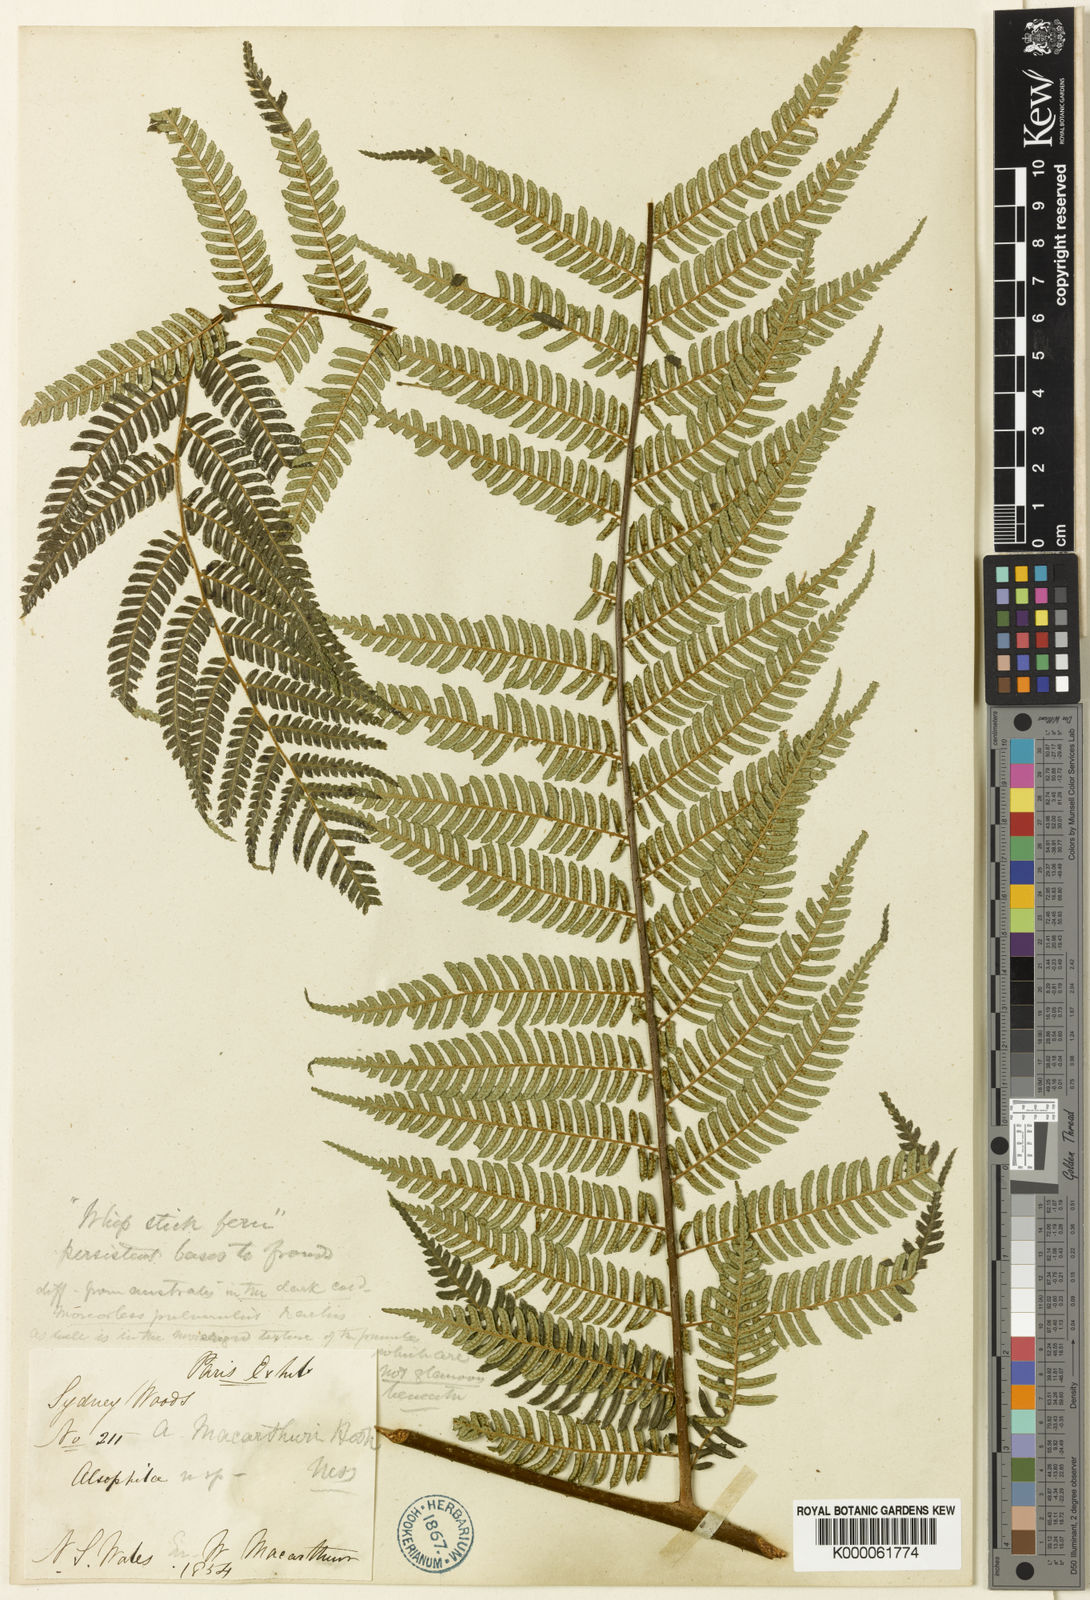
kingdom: Plantae
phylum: Tracheophyta
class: Polypodiopsida
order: Cyatheales
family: Cyatheaceae
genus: Alsophila
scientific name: Alsophila leichhardtiana
